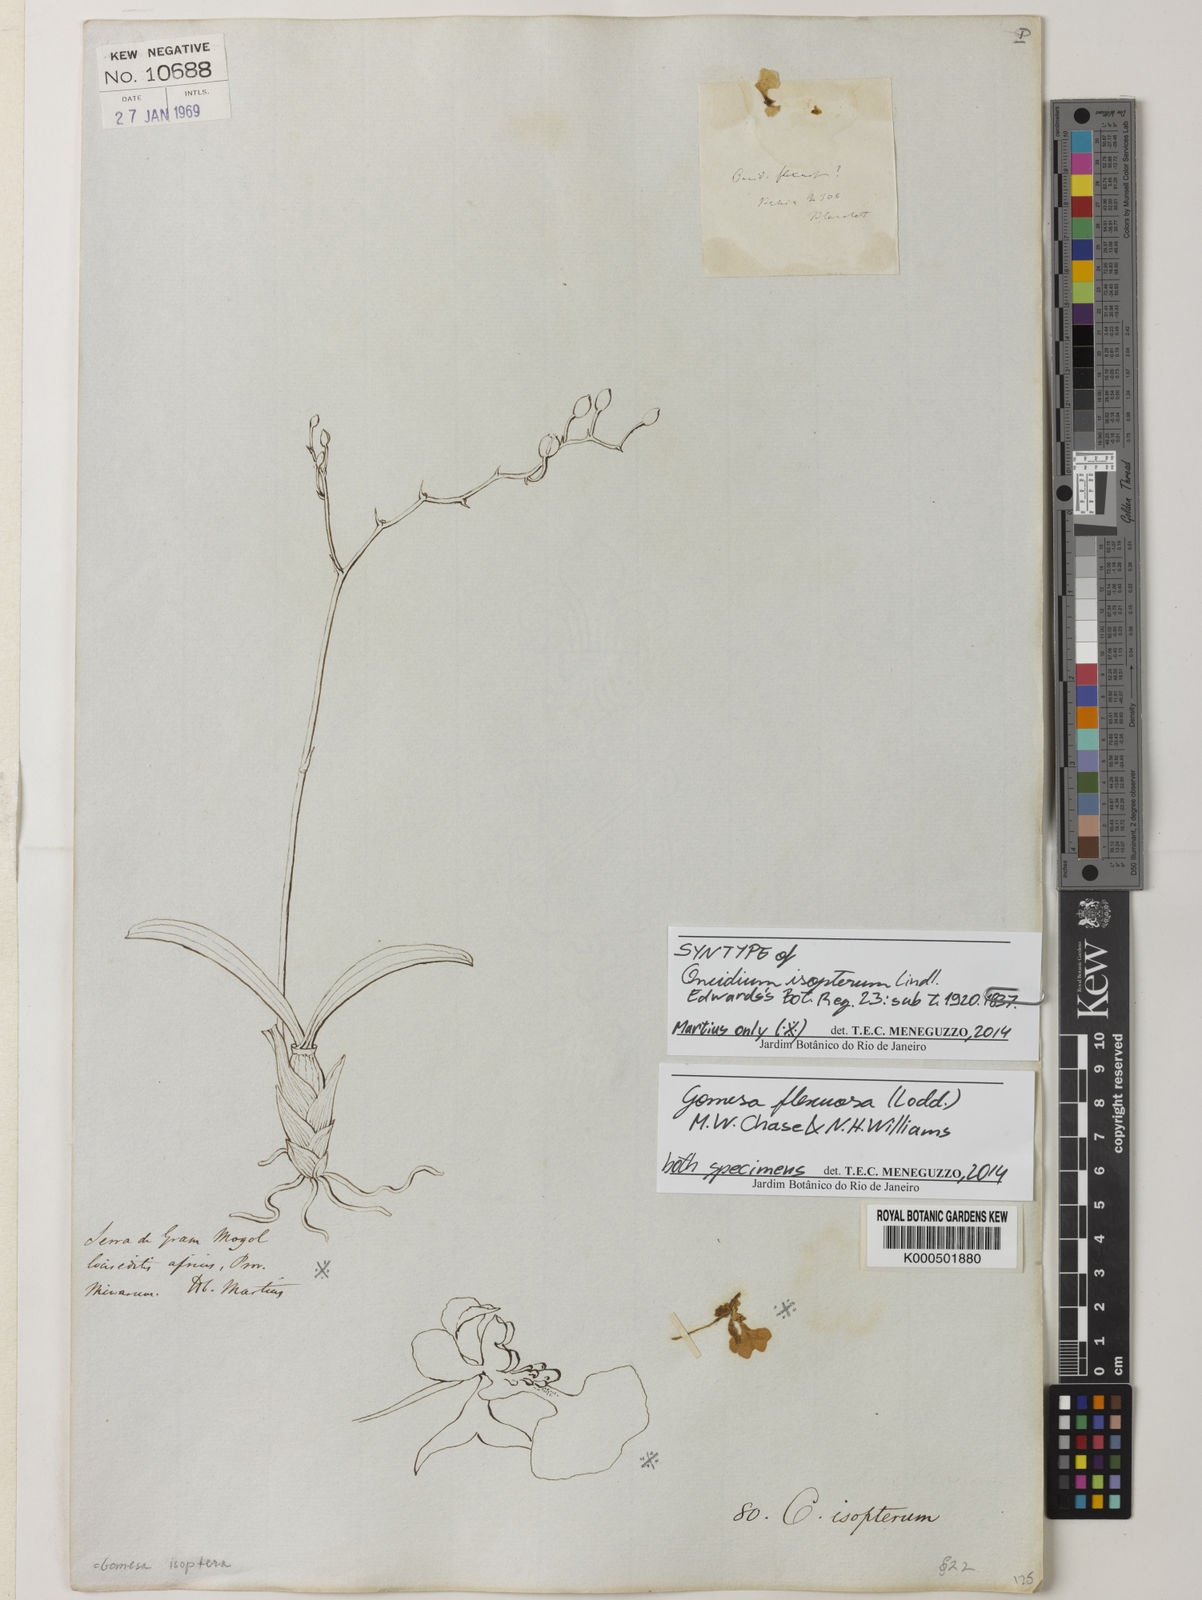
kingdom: Plantae
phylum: Tracheophyta
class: Liliopsida
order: Asparagales
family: Orchidaceae
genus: Gomesa
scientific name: Gomesa flexuosa
